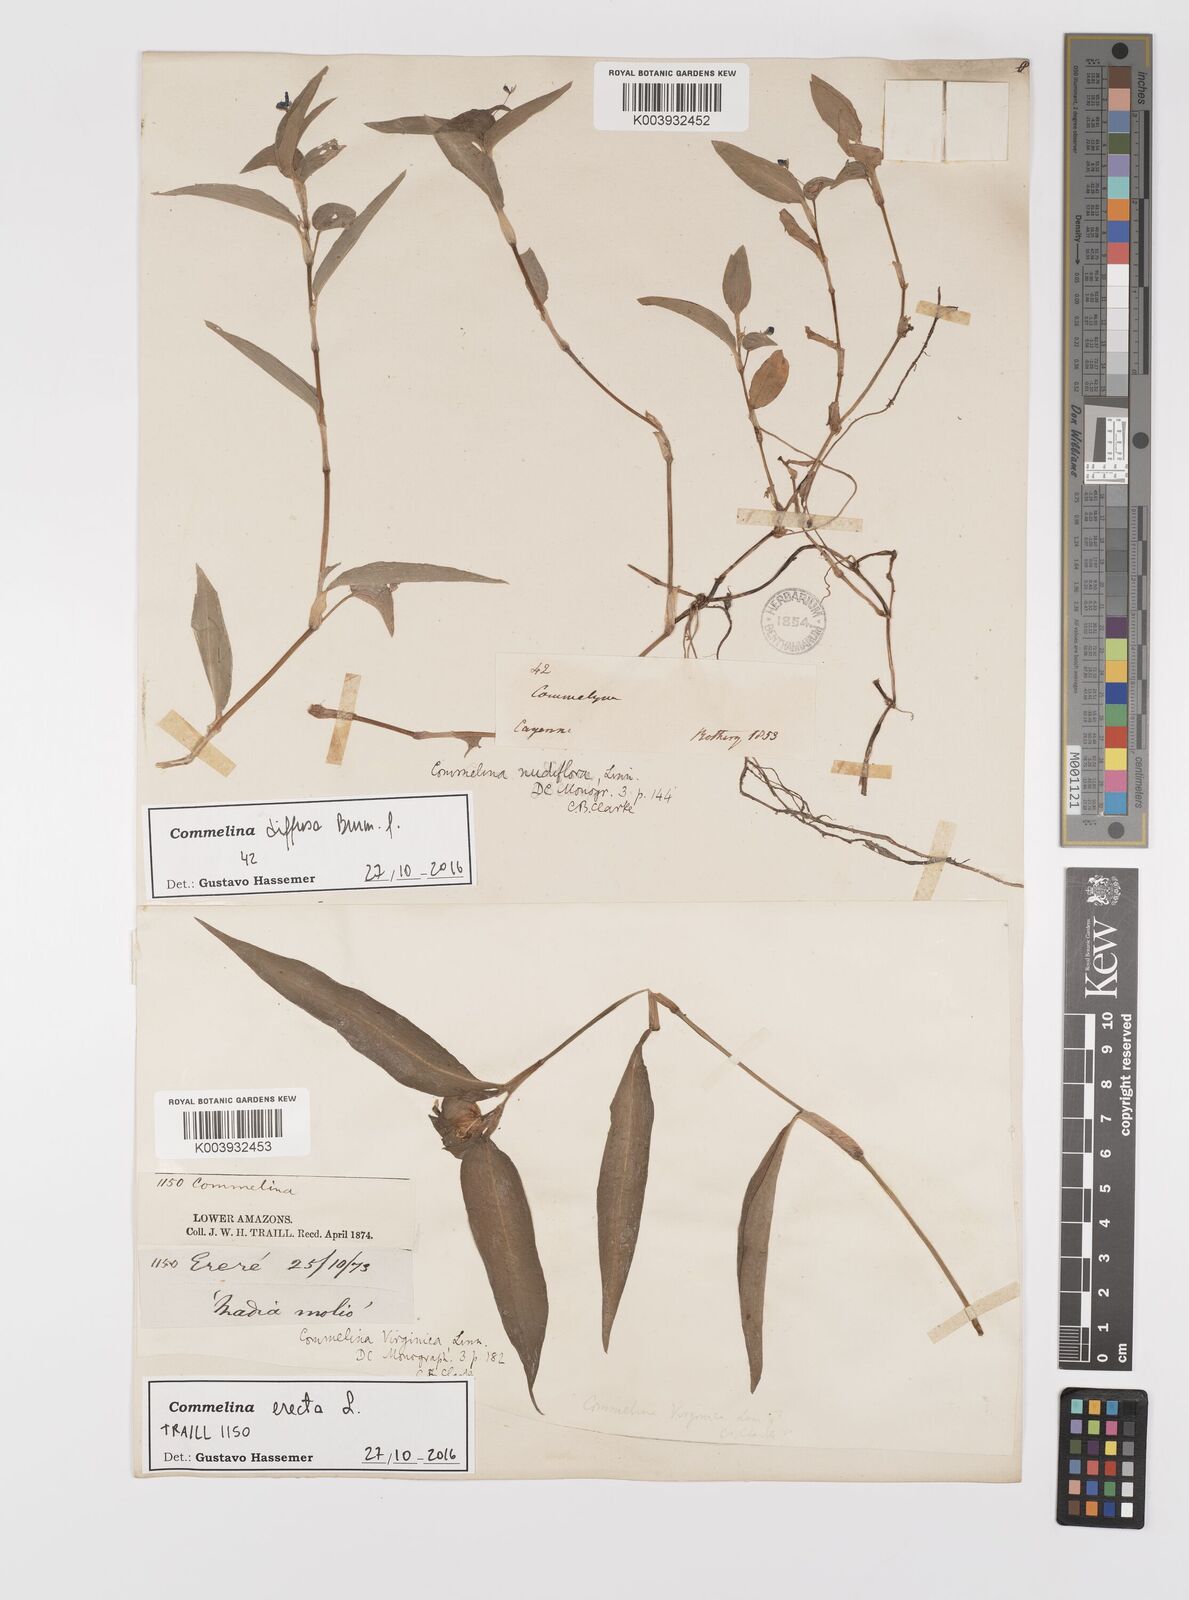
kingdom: Plantae
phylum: Tracheophyta
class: Liliopsida
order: Commelinales
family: Commelinaceae
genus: Commelina
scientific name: Commelina diffusa
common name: Climbing dayflower
